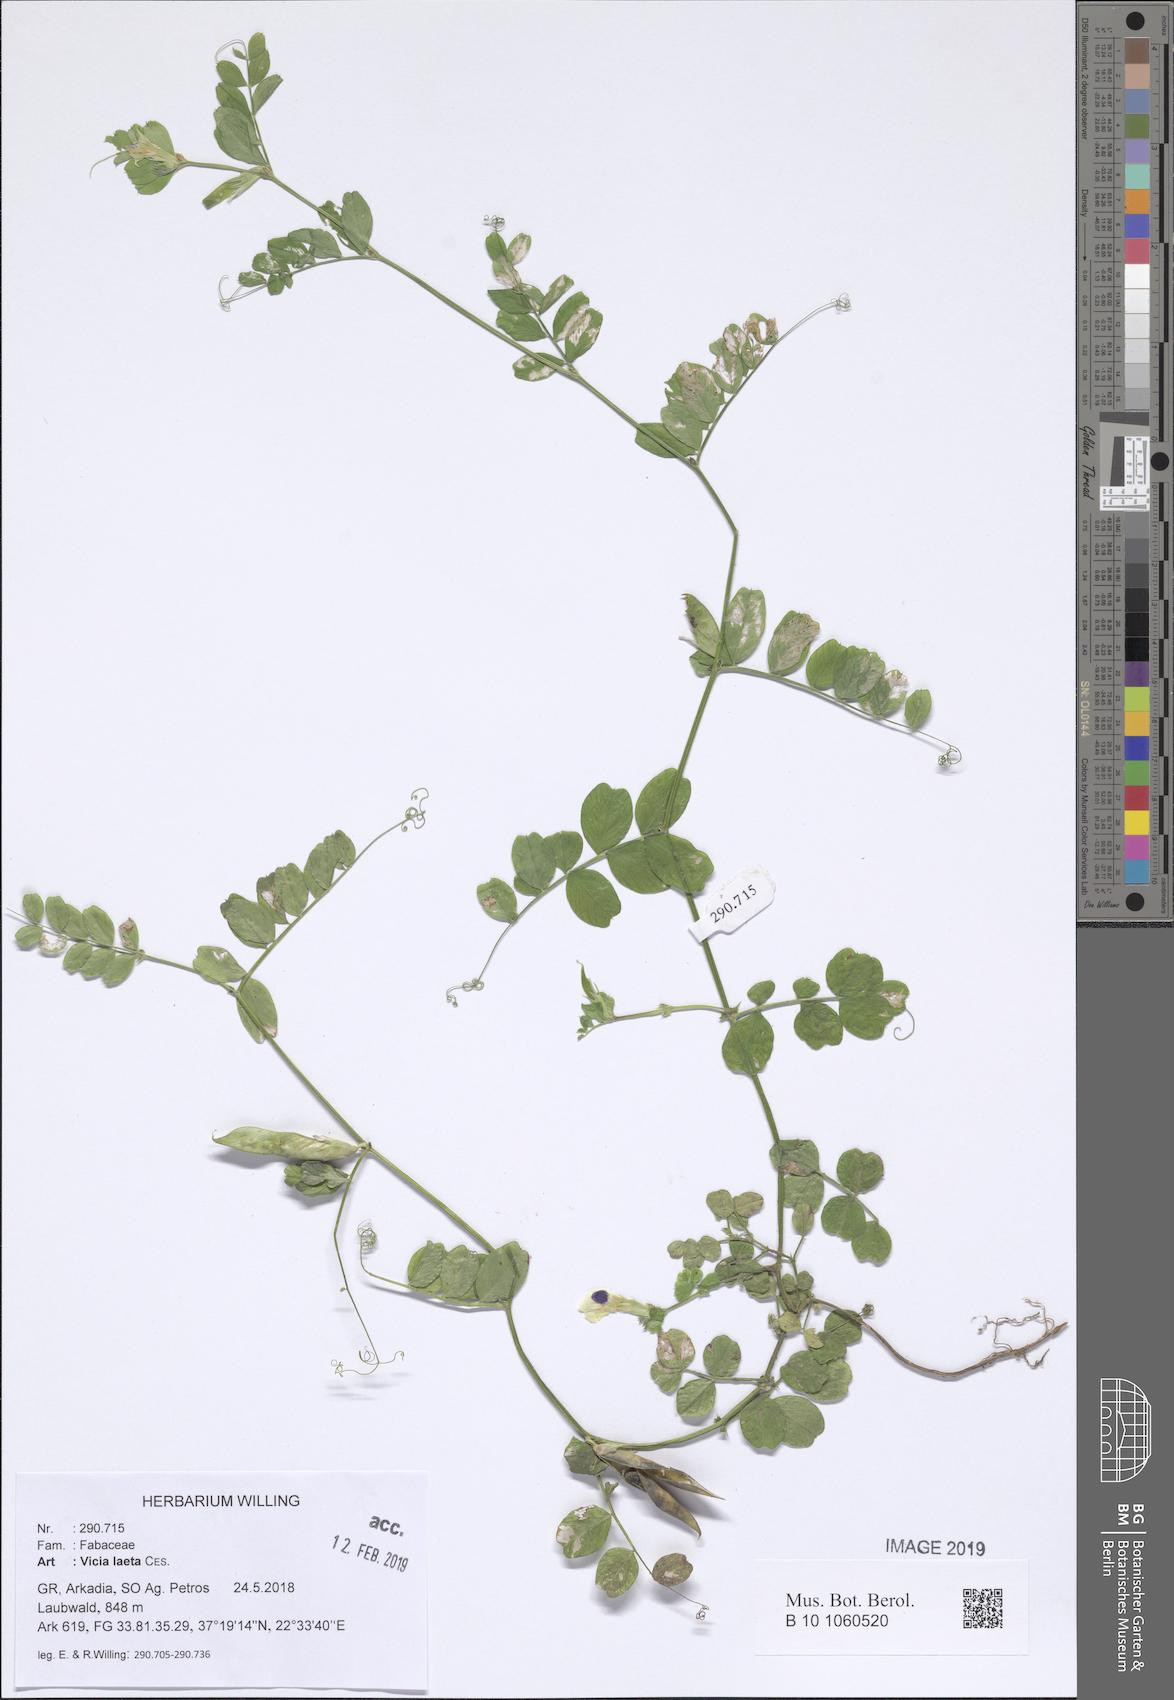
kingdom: Plantae
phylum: Tracheophyta
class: Magnoliopsida
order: Fabales
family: Fabaceae
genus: Vicia
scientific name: Vicia laeta
